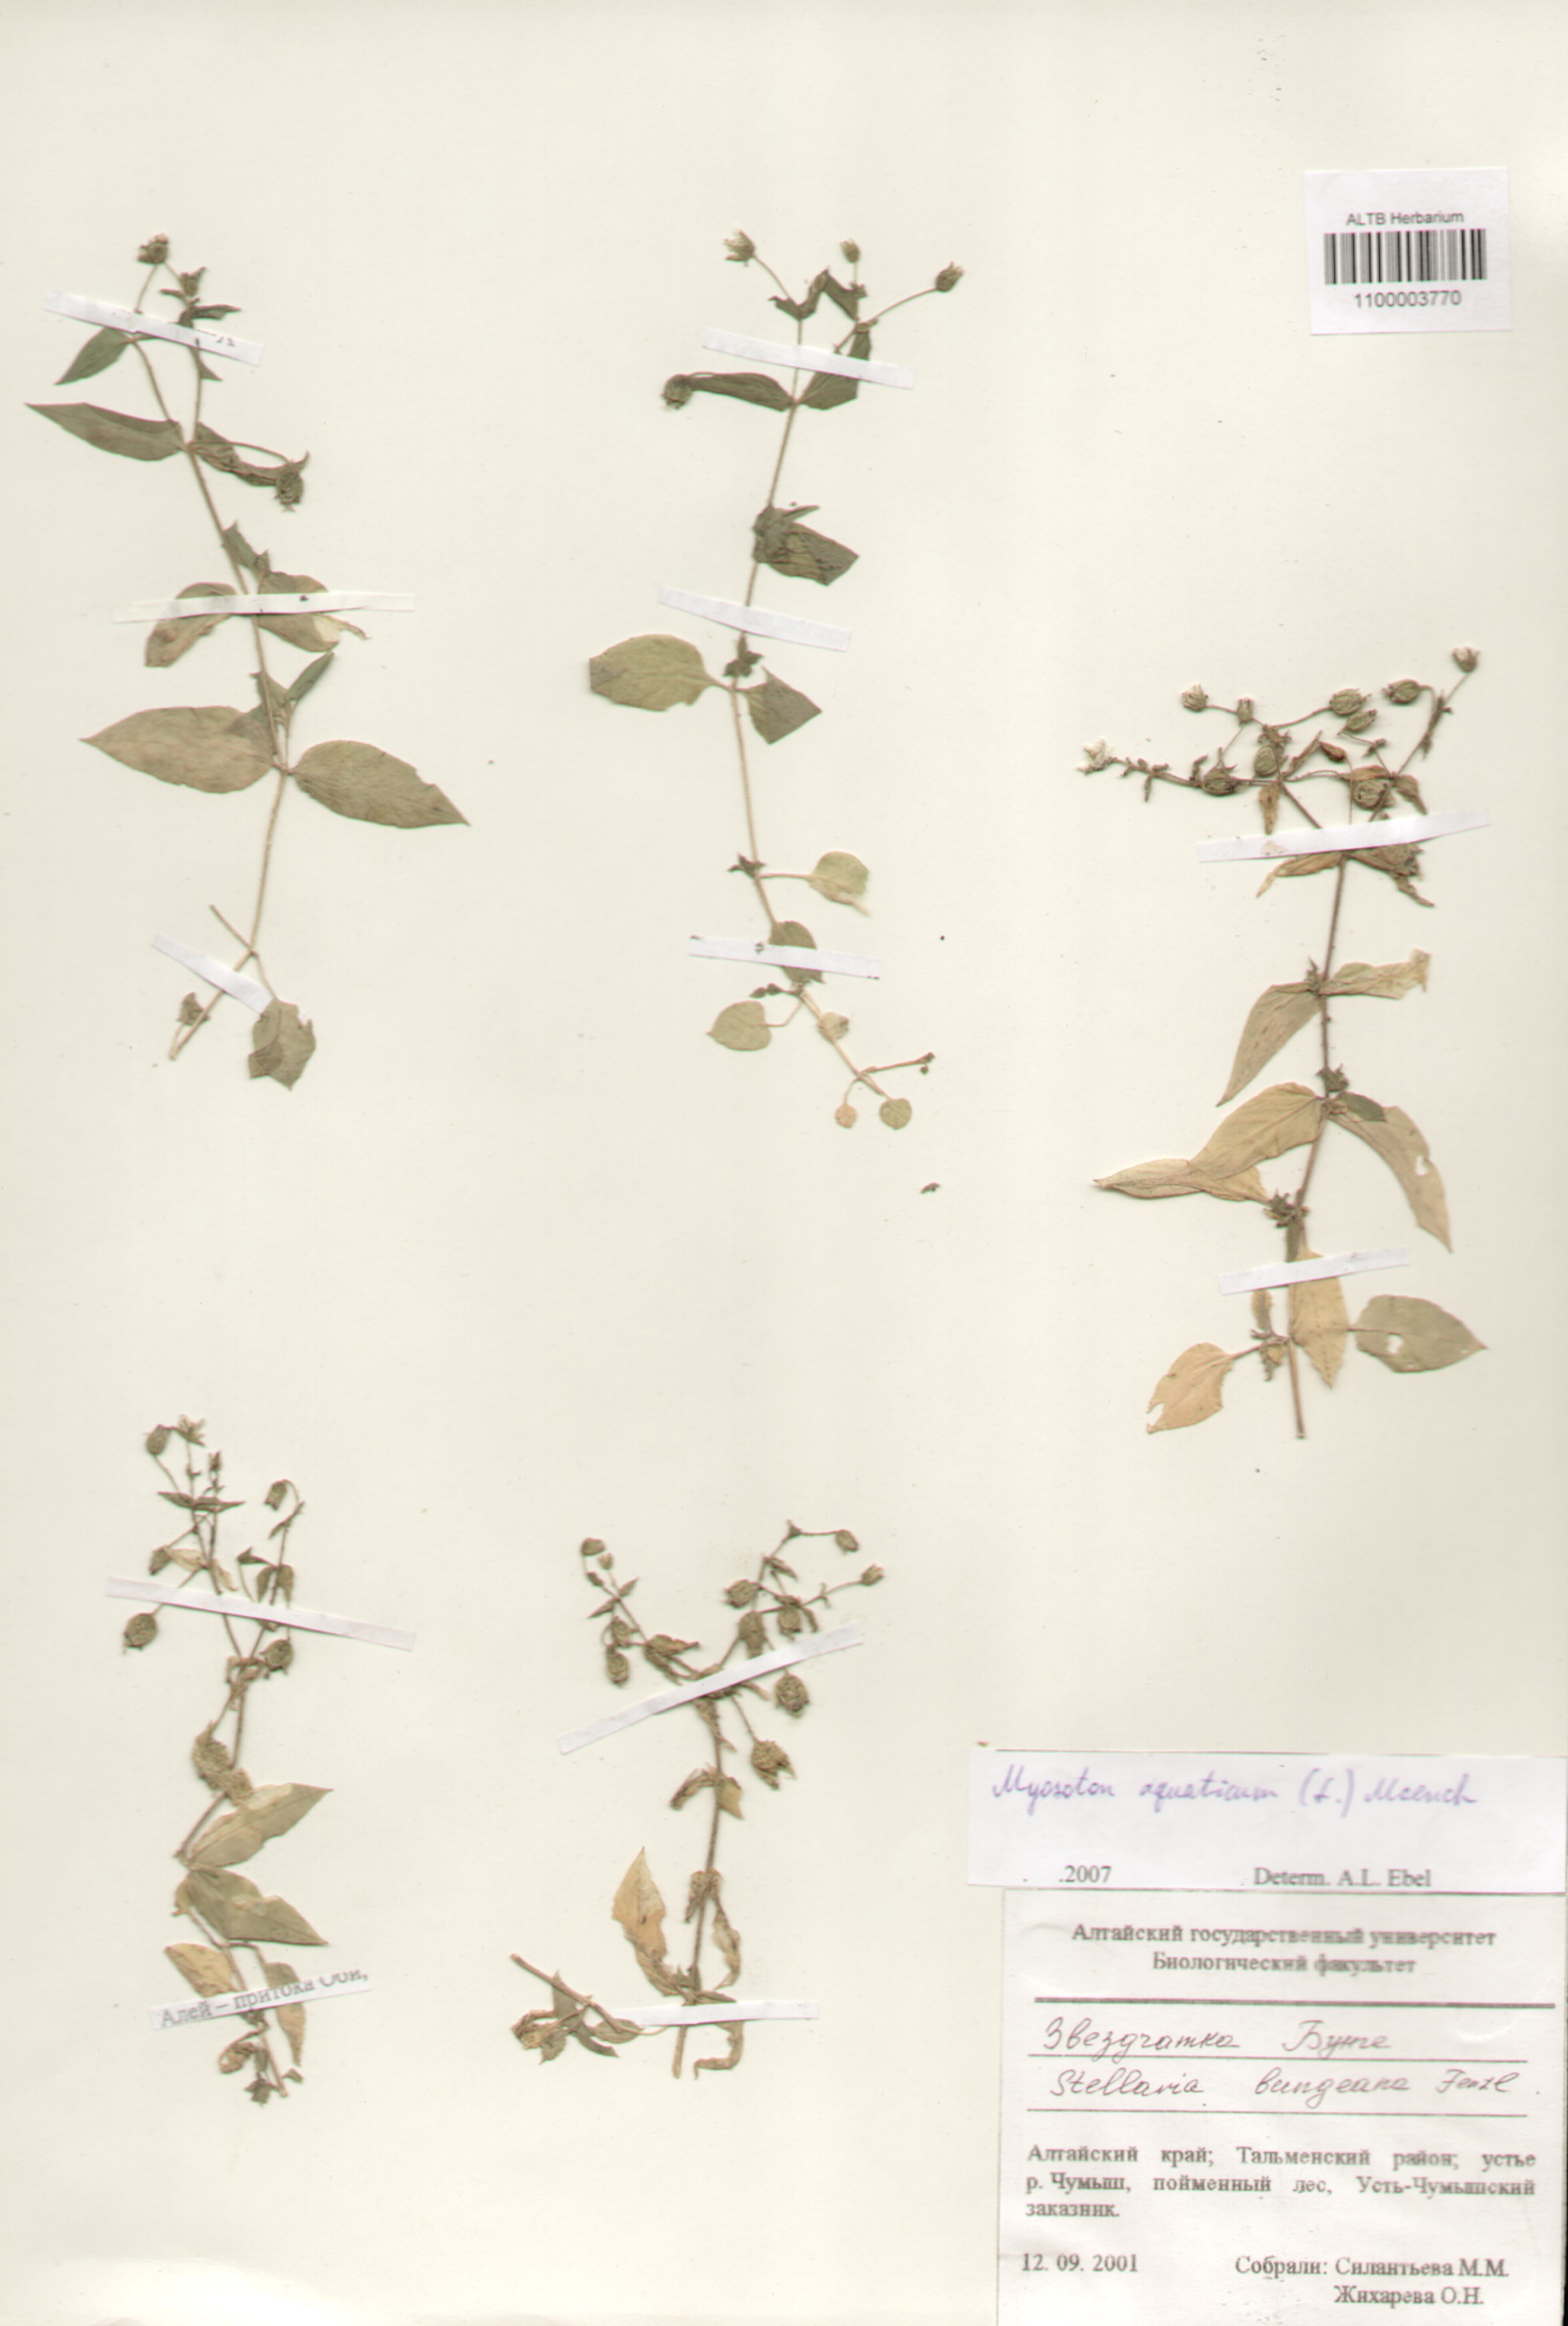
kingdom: Plantae
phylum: Tracheophyta
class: Magnoliopsida
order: Caryophyllales
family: Caryophyllaceae
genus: Stellaria
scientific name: Stellaria aquatica
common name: Water chickweed
